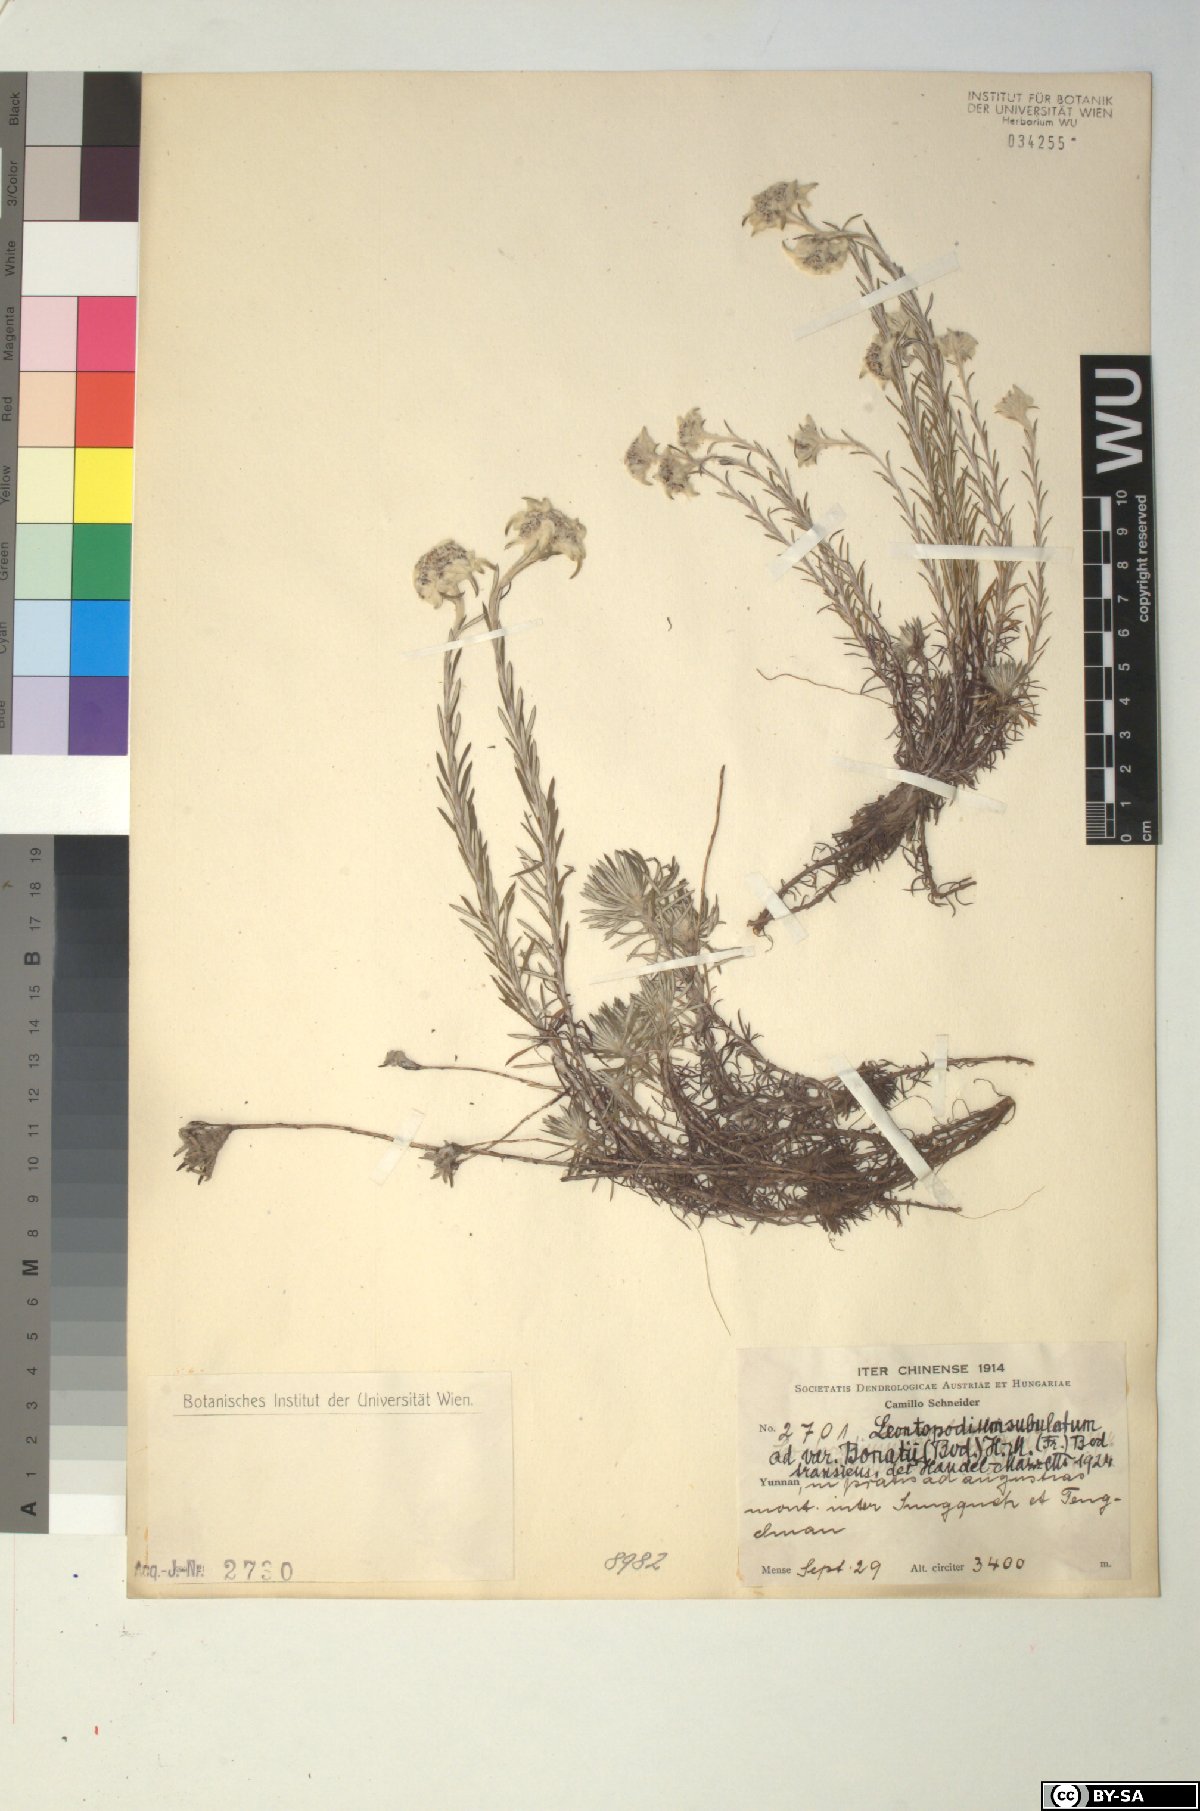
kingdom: Plantae
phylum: Tracheophyta
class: Magnoliopsida
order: Asterales
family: Asteraceae
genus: Leontopodium
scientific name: Leontopodium andersonii
